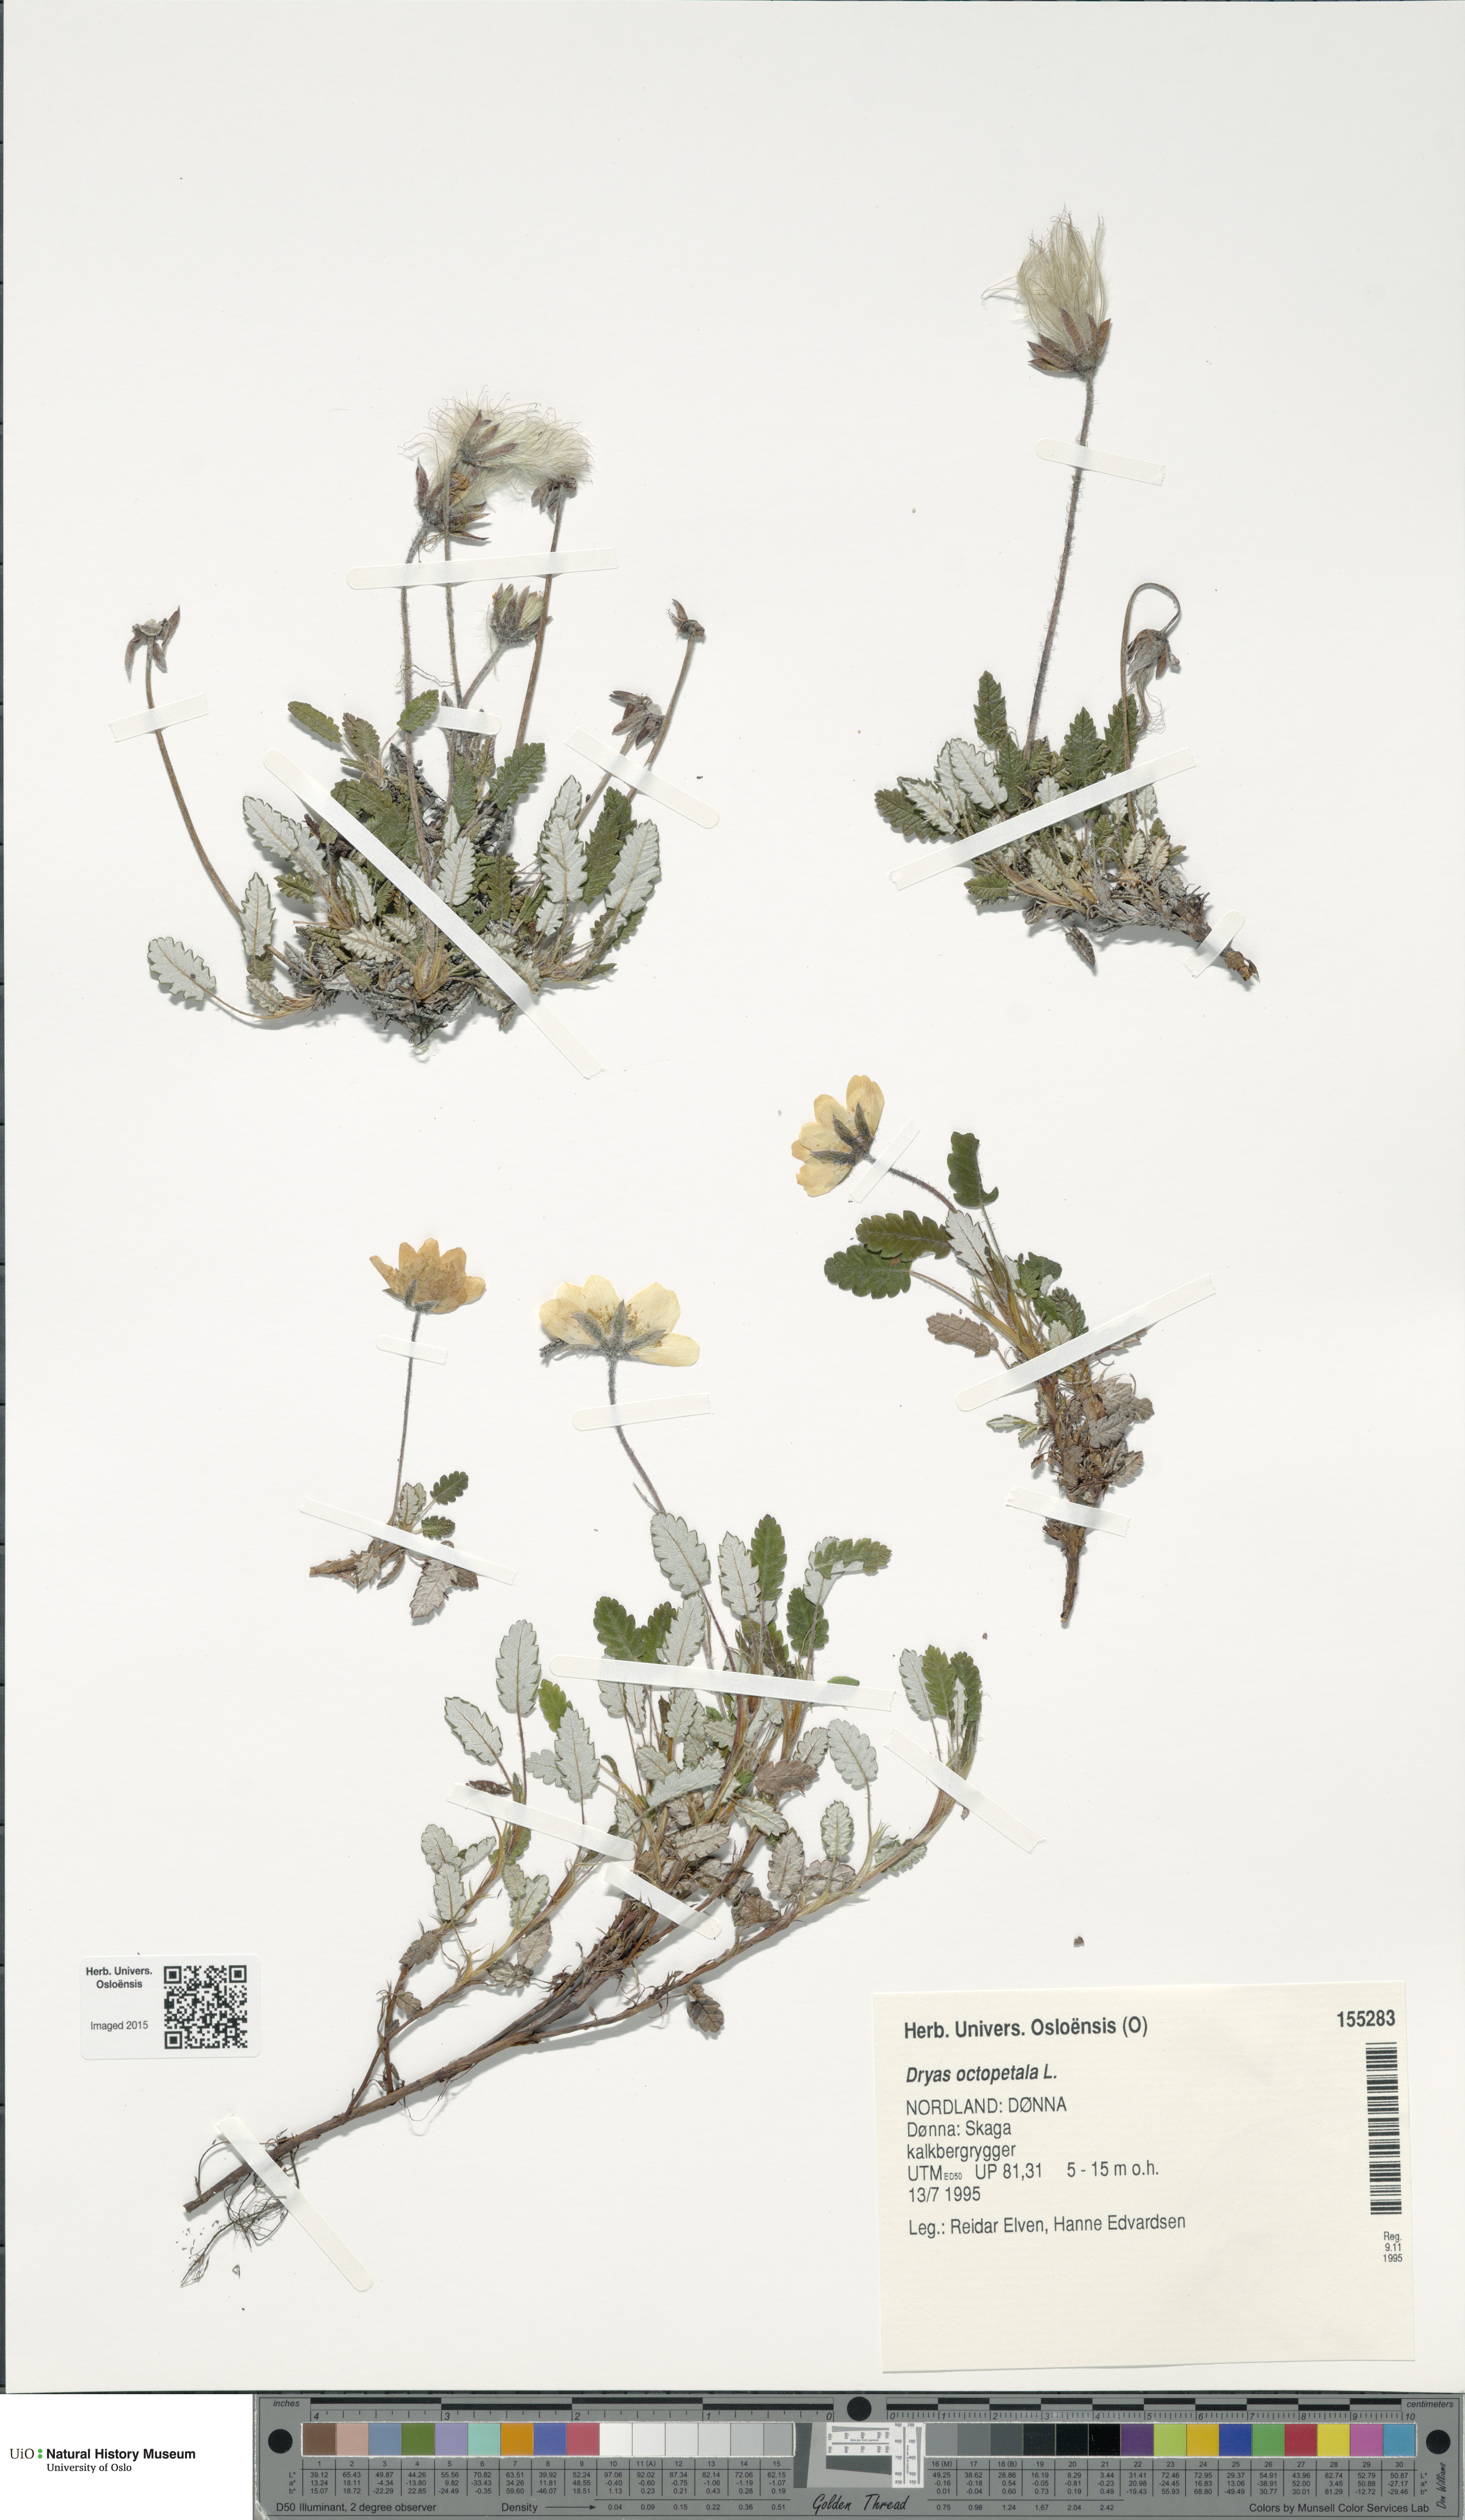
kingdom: Plantae
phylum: Tracheophyta
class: Magnoliopsida
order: Rosales
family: Rosaceae
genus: Dryas
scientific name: Dryas octopetala
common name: Eight-petal mountain-avens
